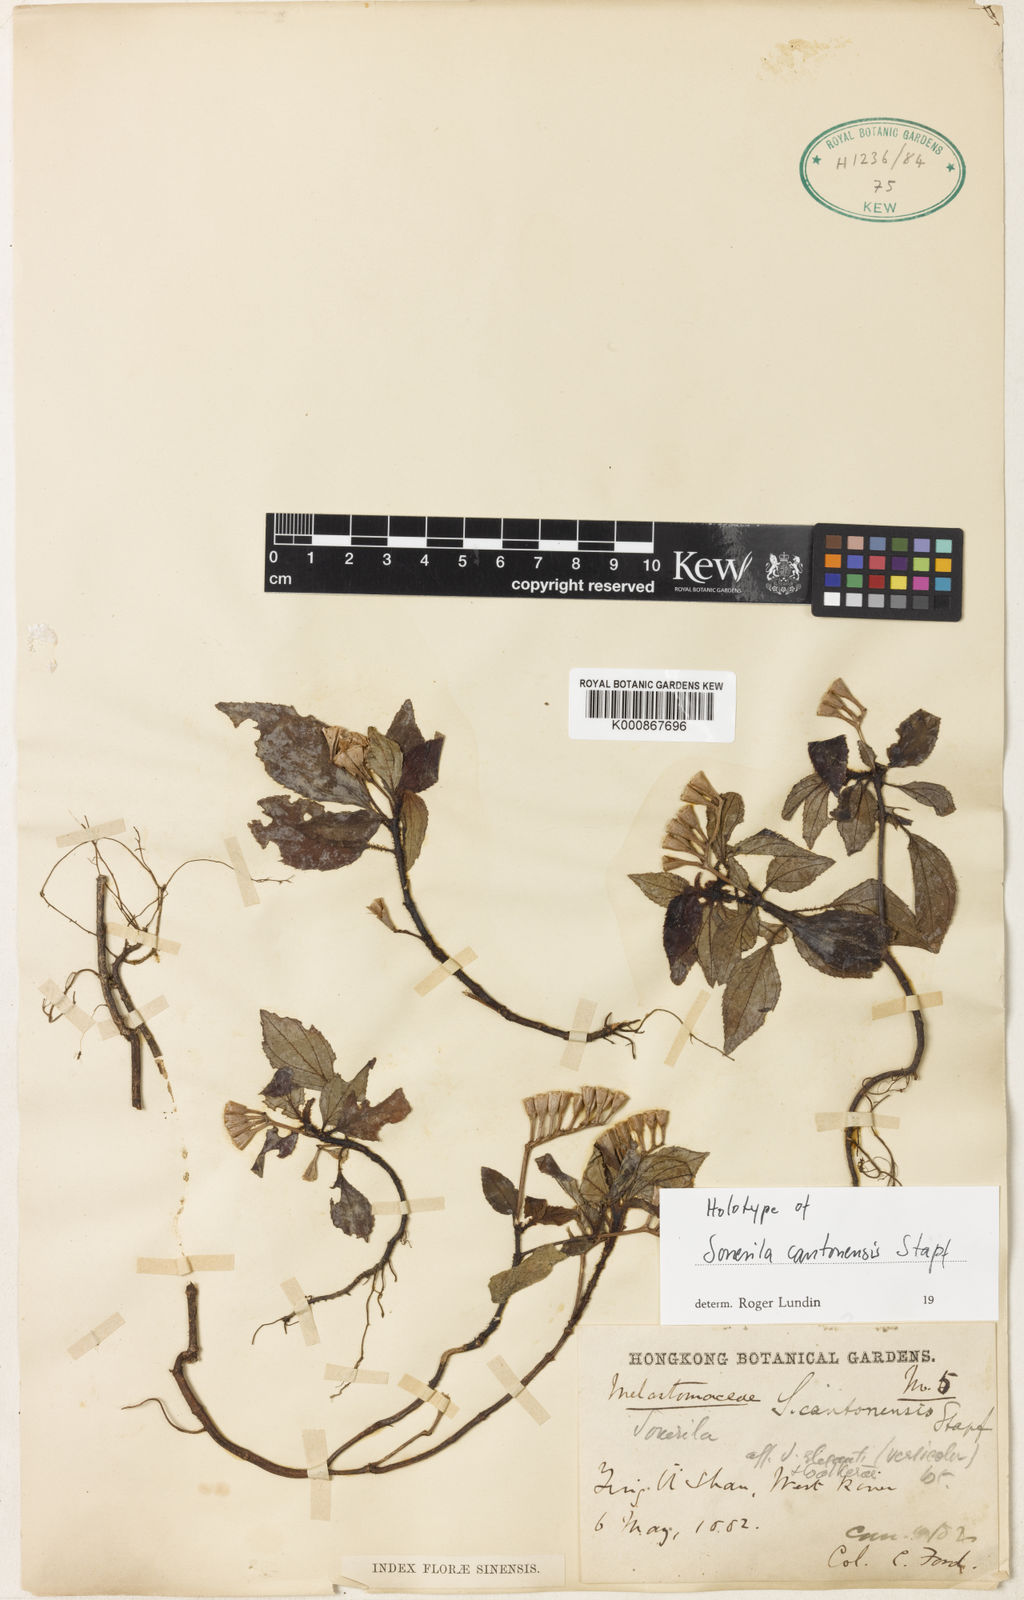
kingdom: Plantae
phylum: Tracheophyta
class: Magnoliopsida
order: Myrtales
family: Melastomataceae
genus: Sonerila
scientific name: Sonerila cantonensis
